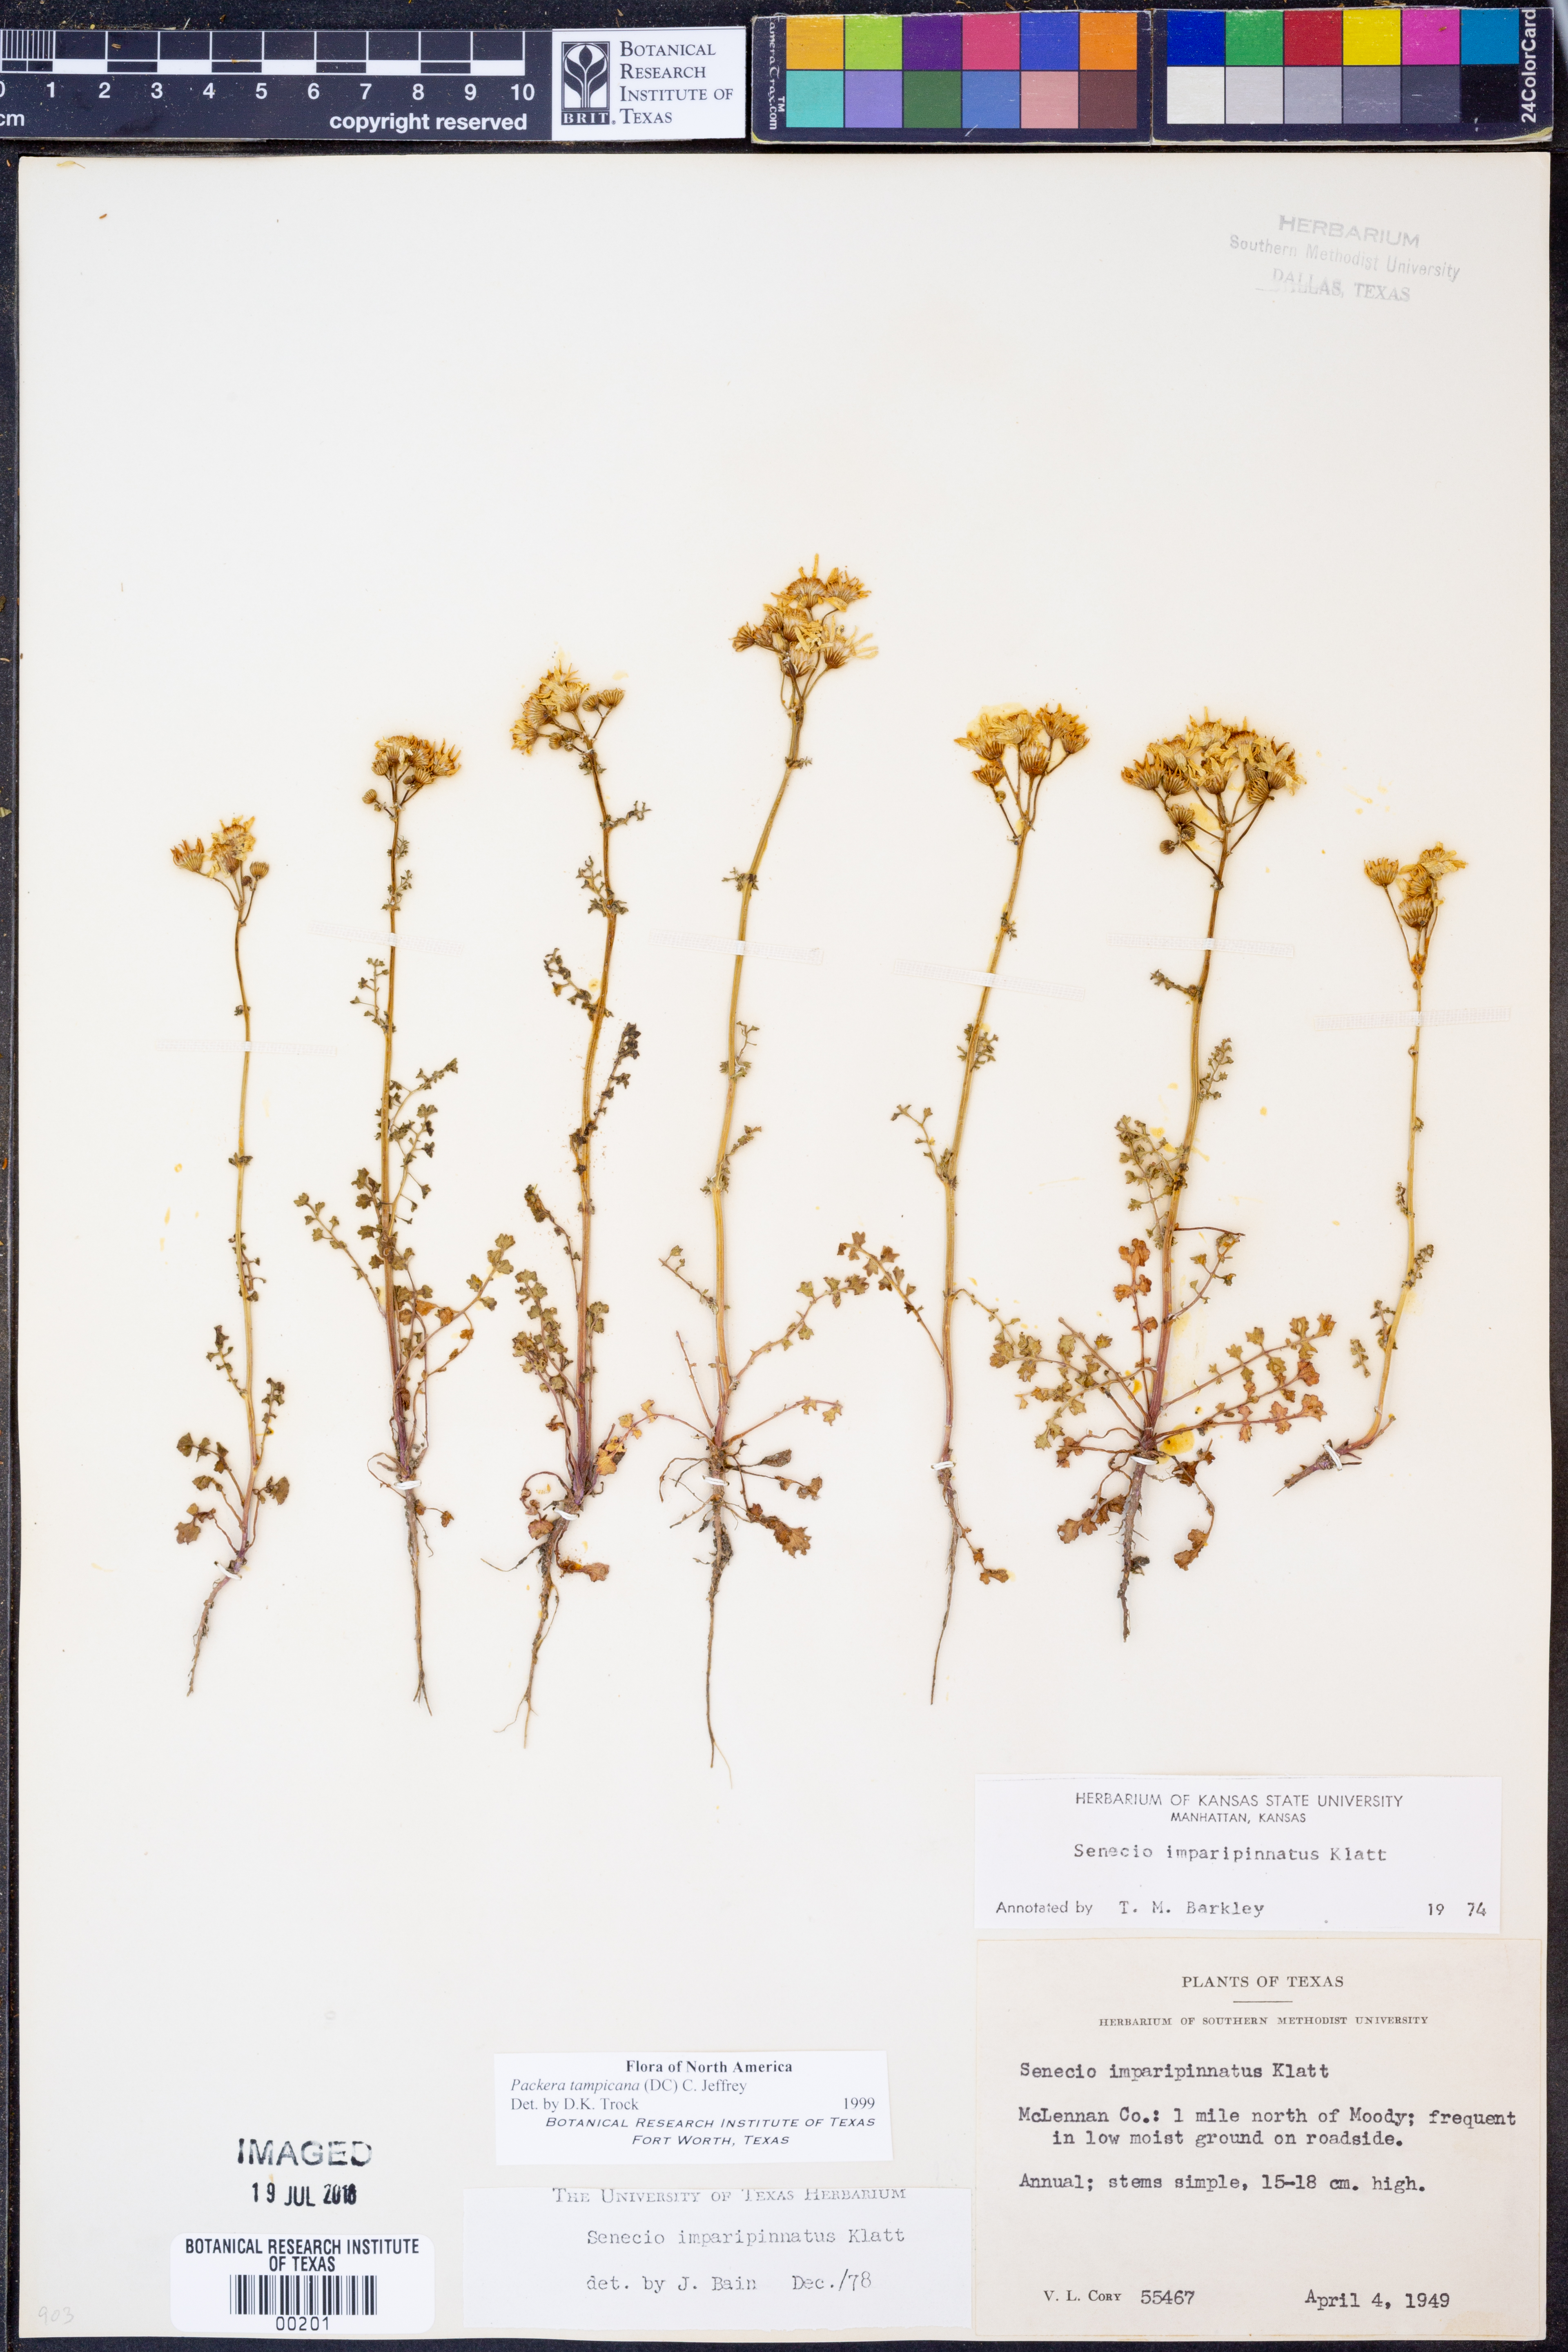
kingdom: Plantae
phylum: Tracheophyta
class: Magnoliopsida
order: Asterales
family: Asteraceae
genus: Packera
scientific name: Packera tampicana
